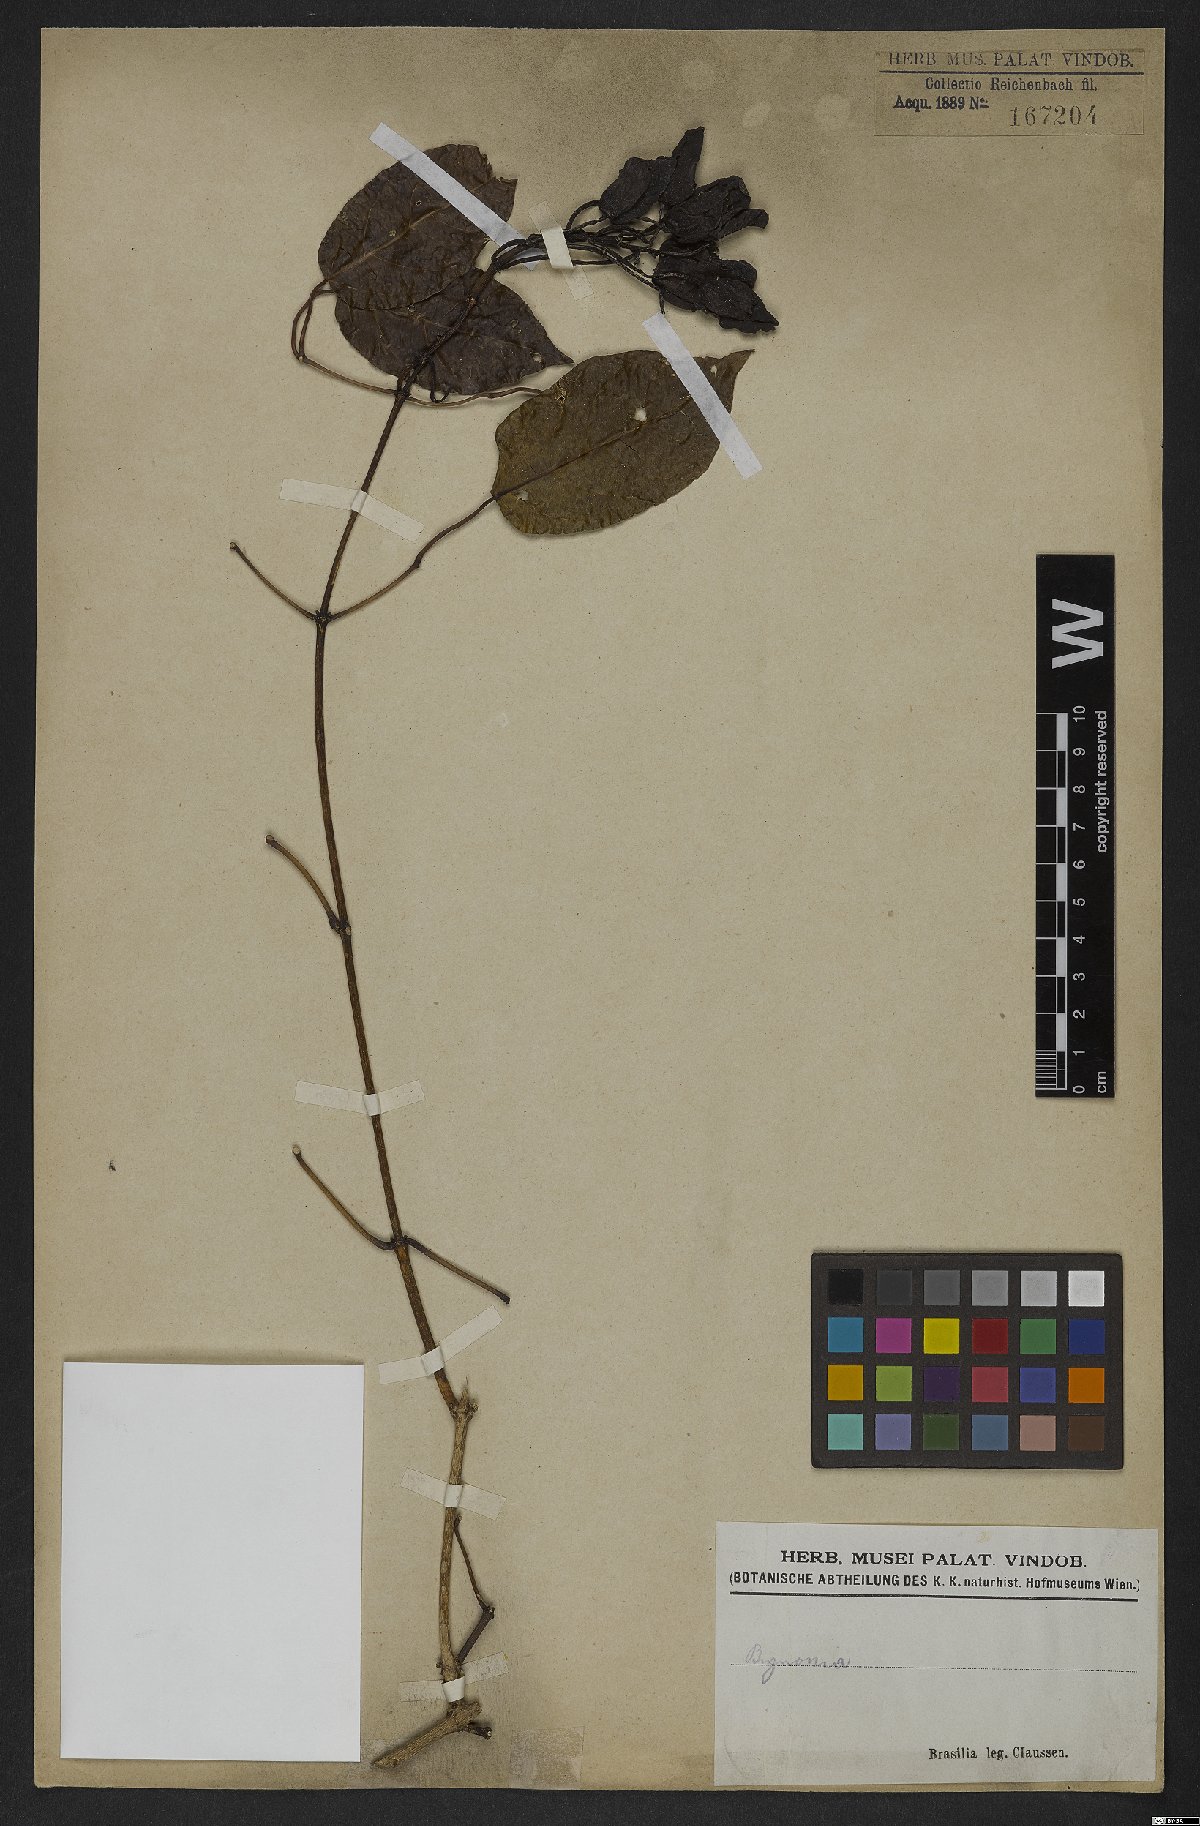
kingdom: Plantae
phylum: Tracheophyta
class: Magnoliopsida
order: Lamiales
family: Bignoniaceae
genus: Bignonia
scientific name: Bignonia
